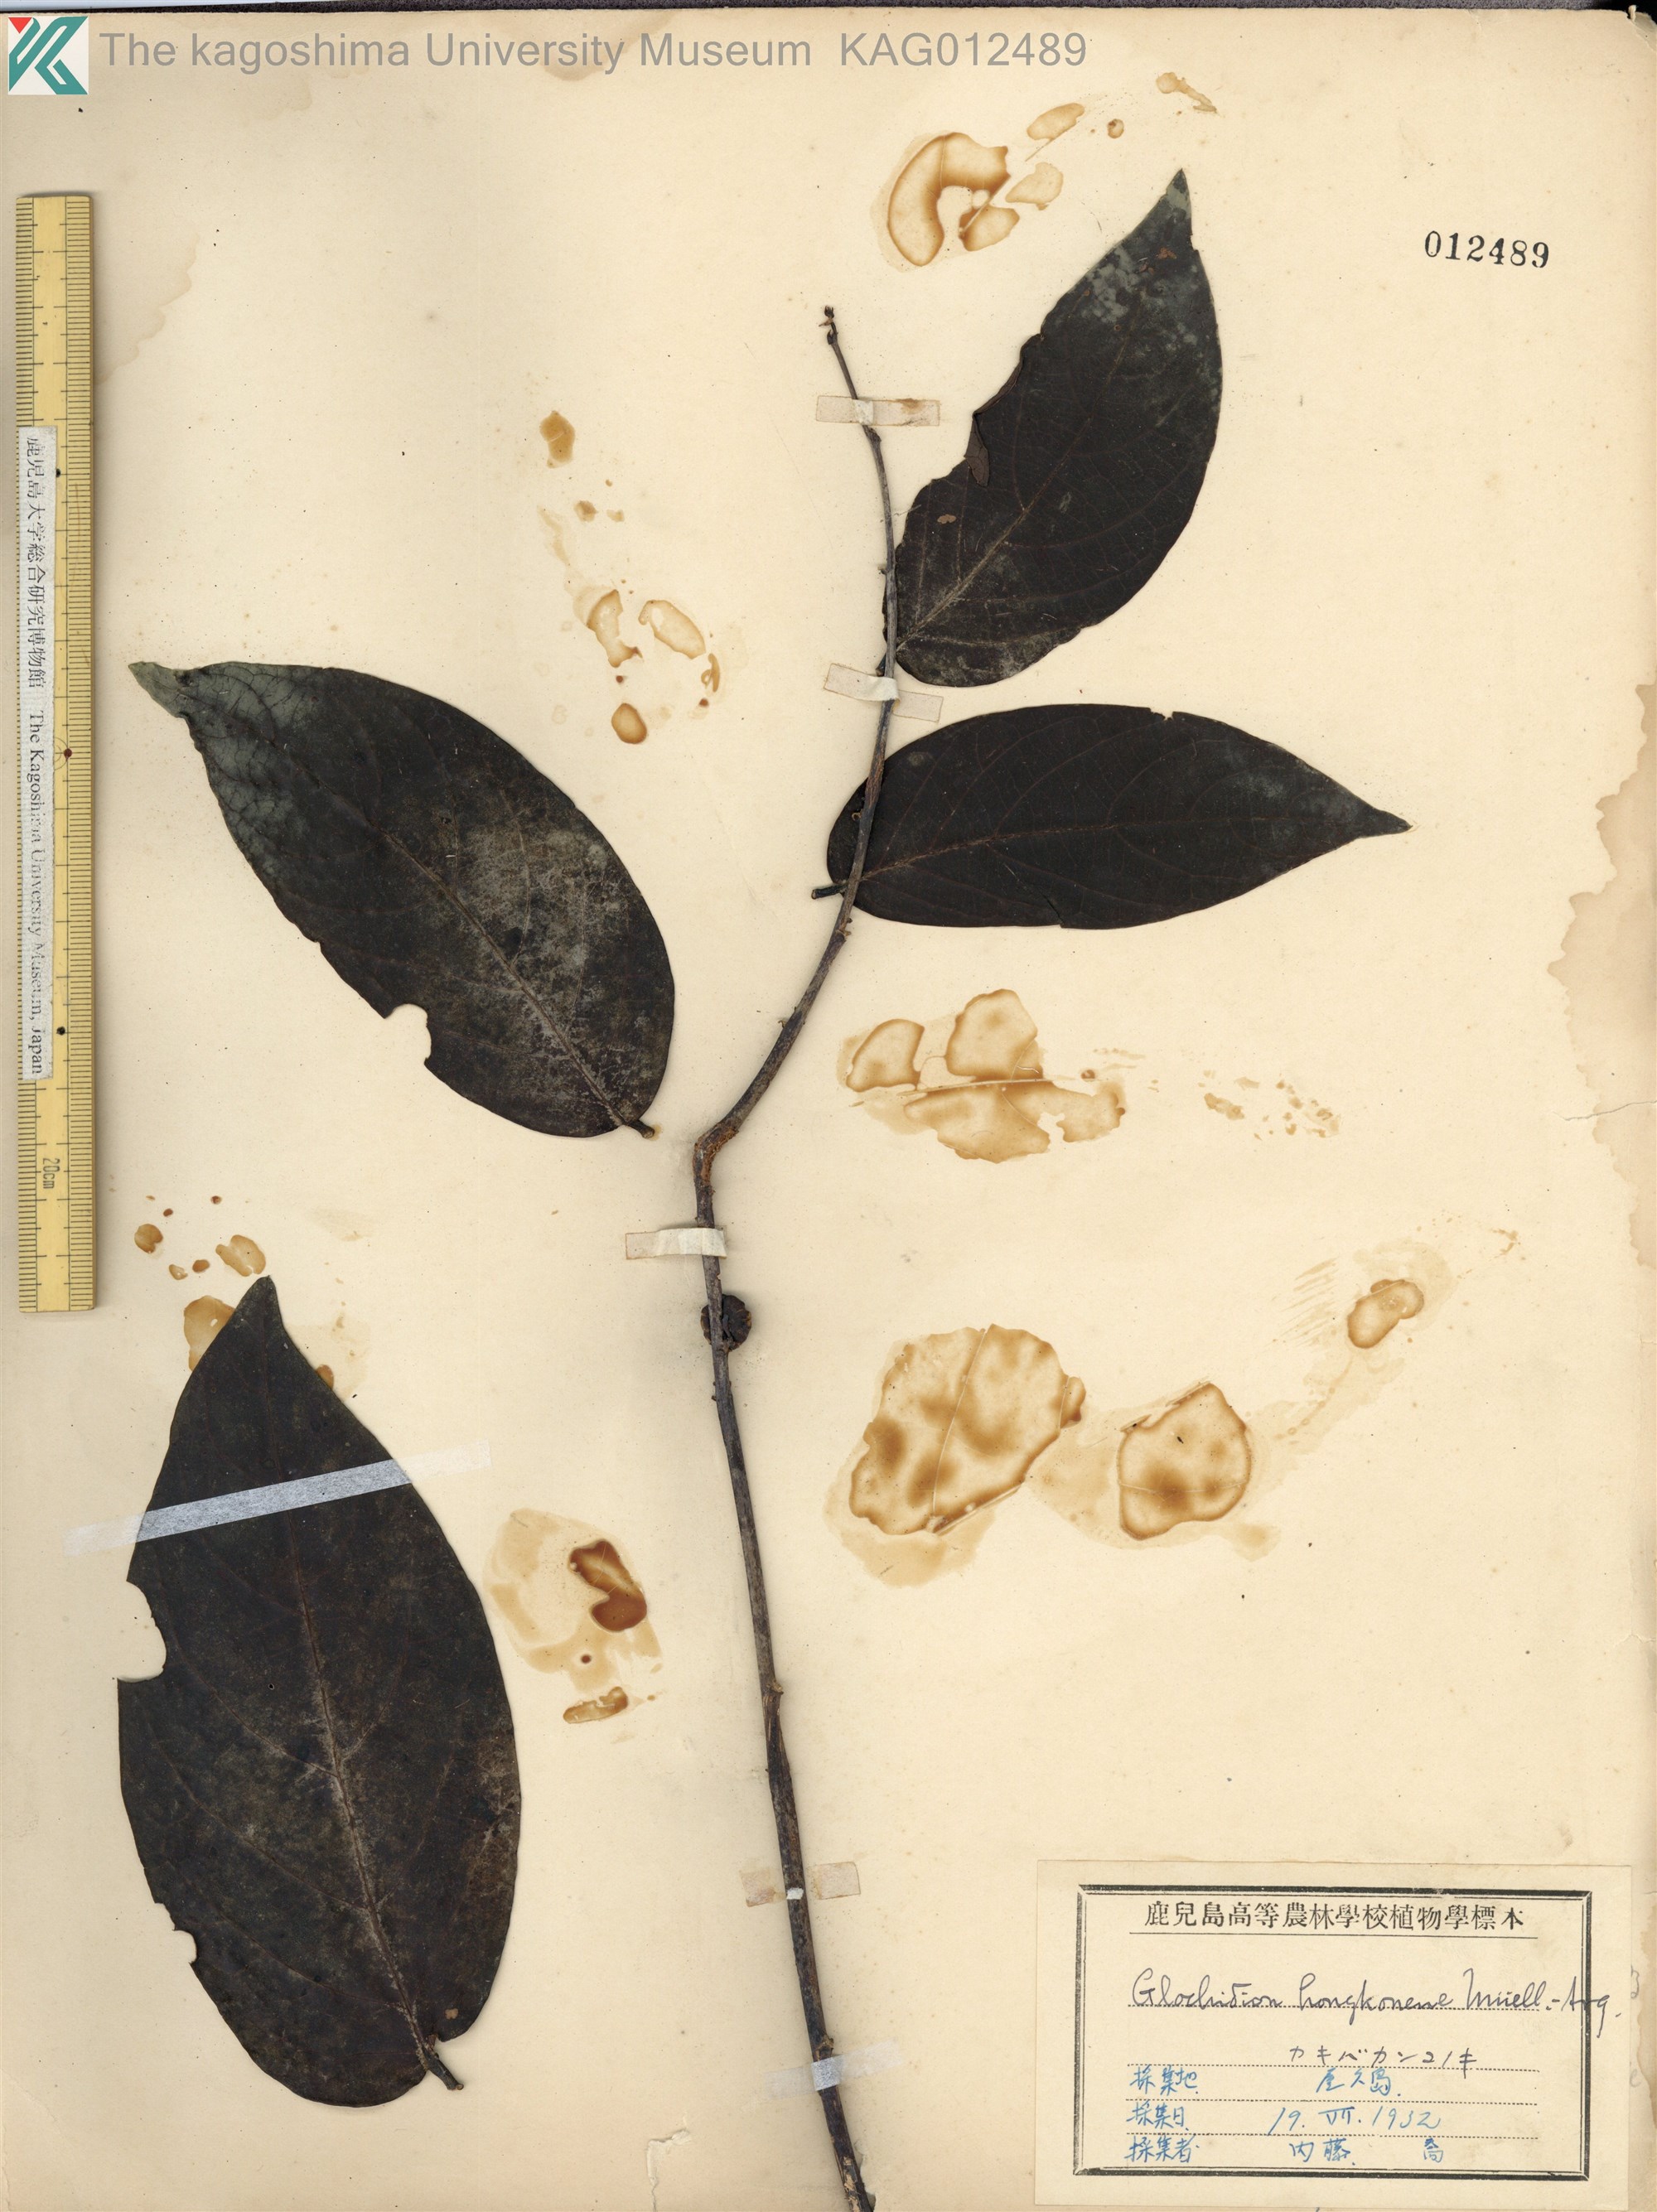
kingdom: Plantae
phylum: Tracheophyta
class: Magnoliopsida
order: Malpighiales
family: Phyllanthaceae
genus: Glochidion
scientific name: Glochidion zeylanicum
